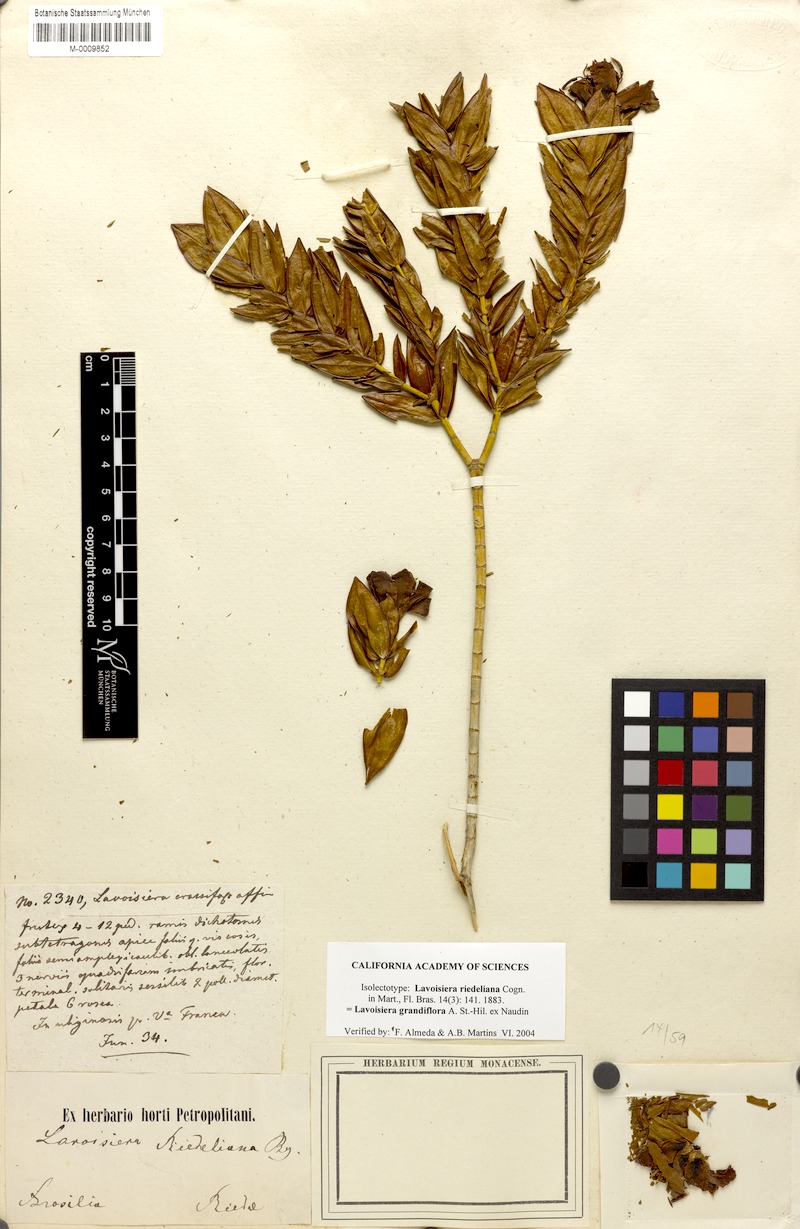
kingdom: Plantae
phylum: Tracheophyta
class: Magnoliopsida
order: Myrtales
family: Melastomataceae
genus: Microlicia
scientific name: Microlicia macrantha
